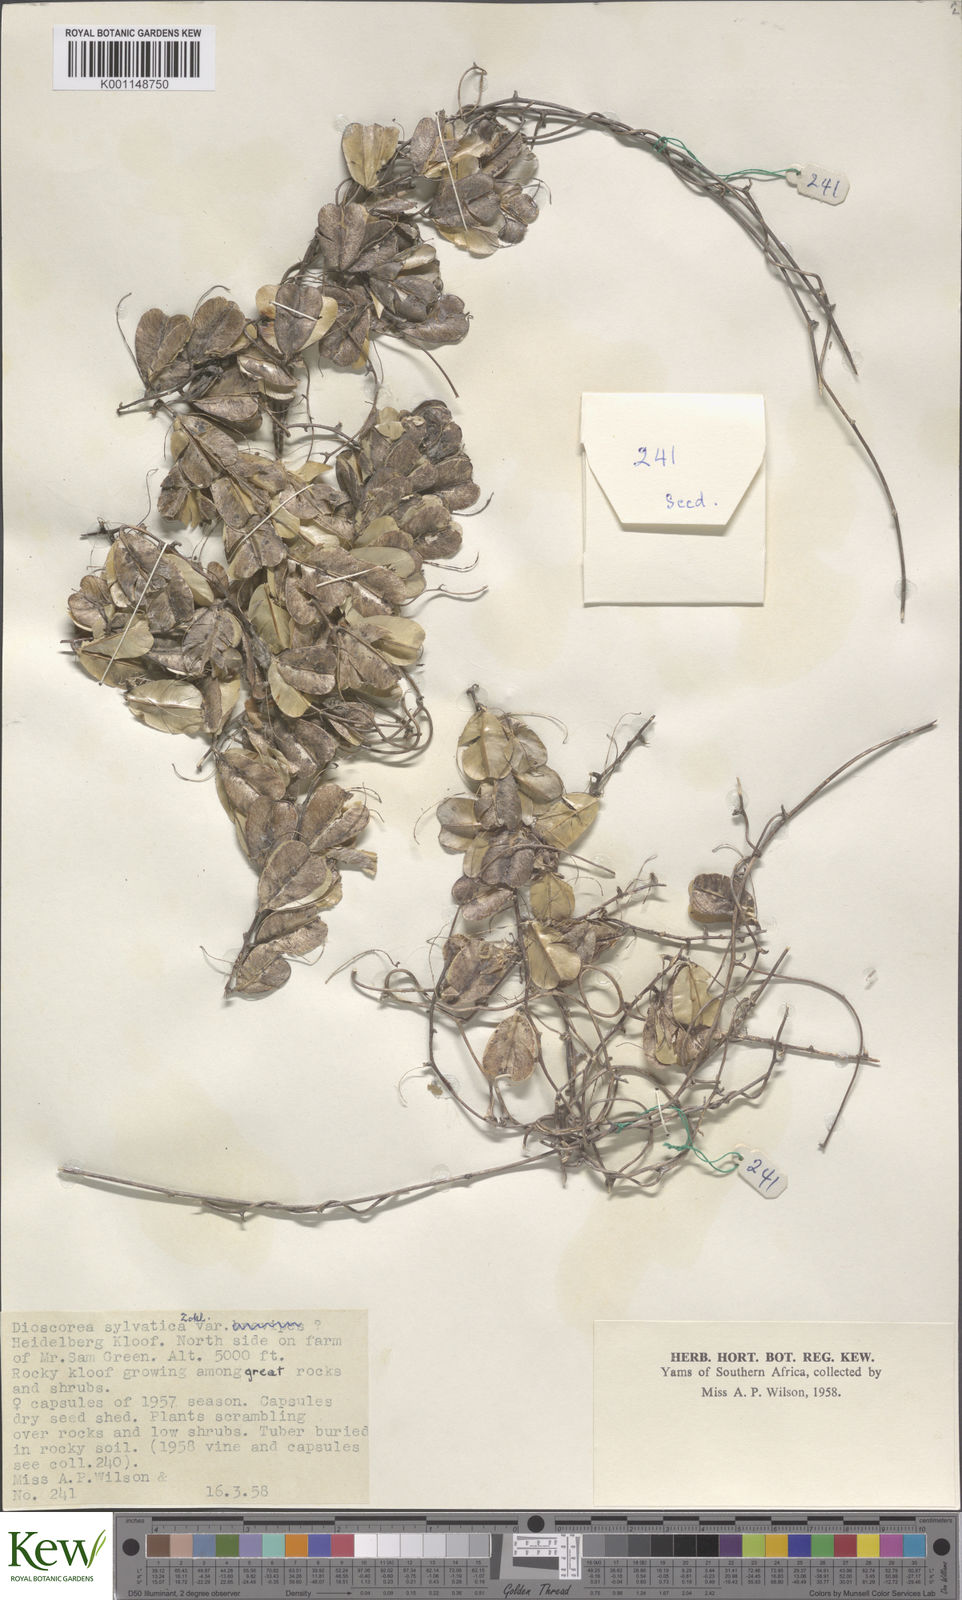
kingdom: Plantae
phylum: Tracheophyta
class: Liliopsida
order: Dioscoreales
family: Dioscoreaceae
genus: Dioscorea
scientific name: Dioscorea sylvatica
